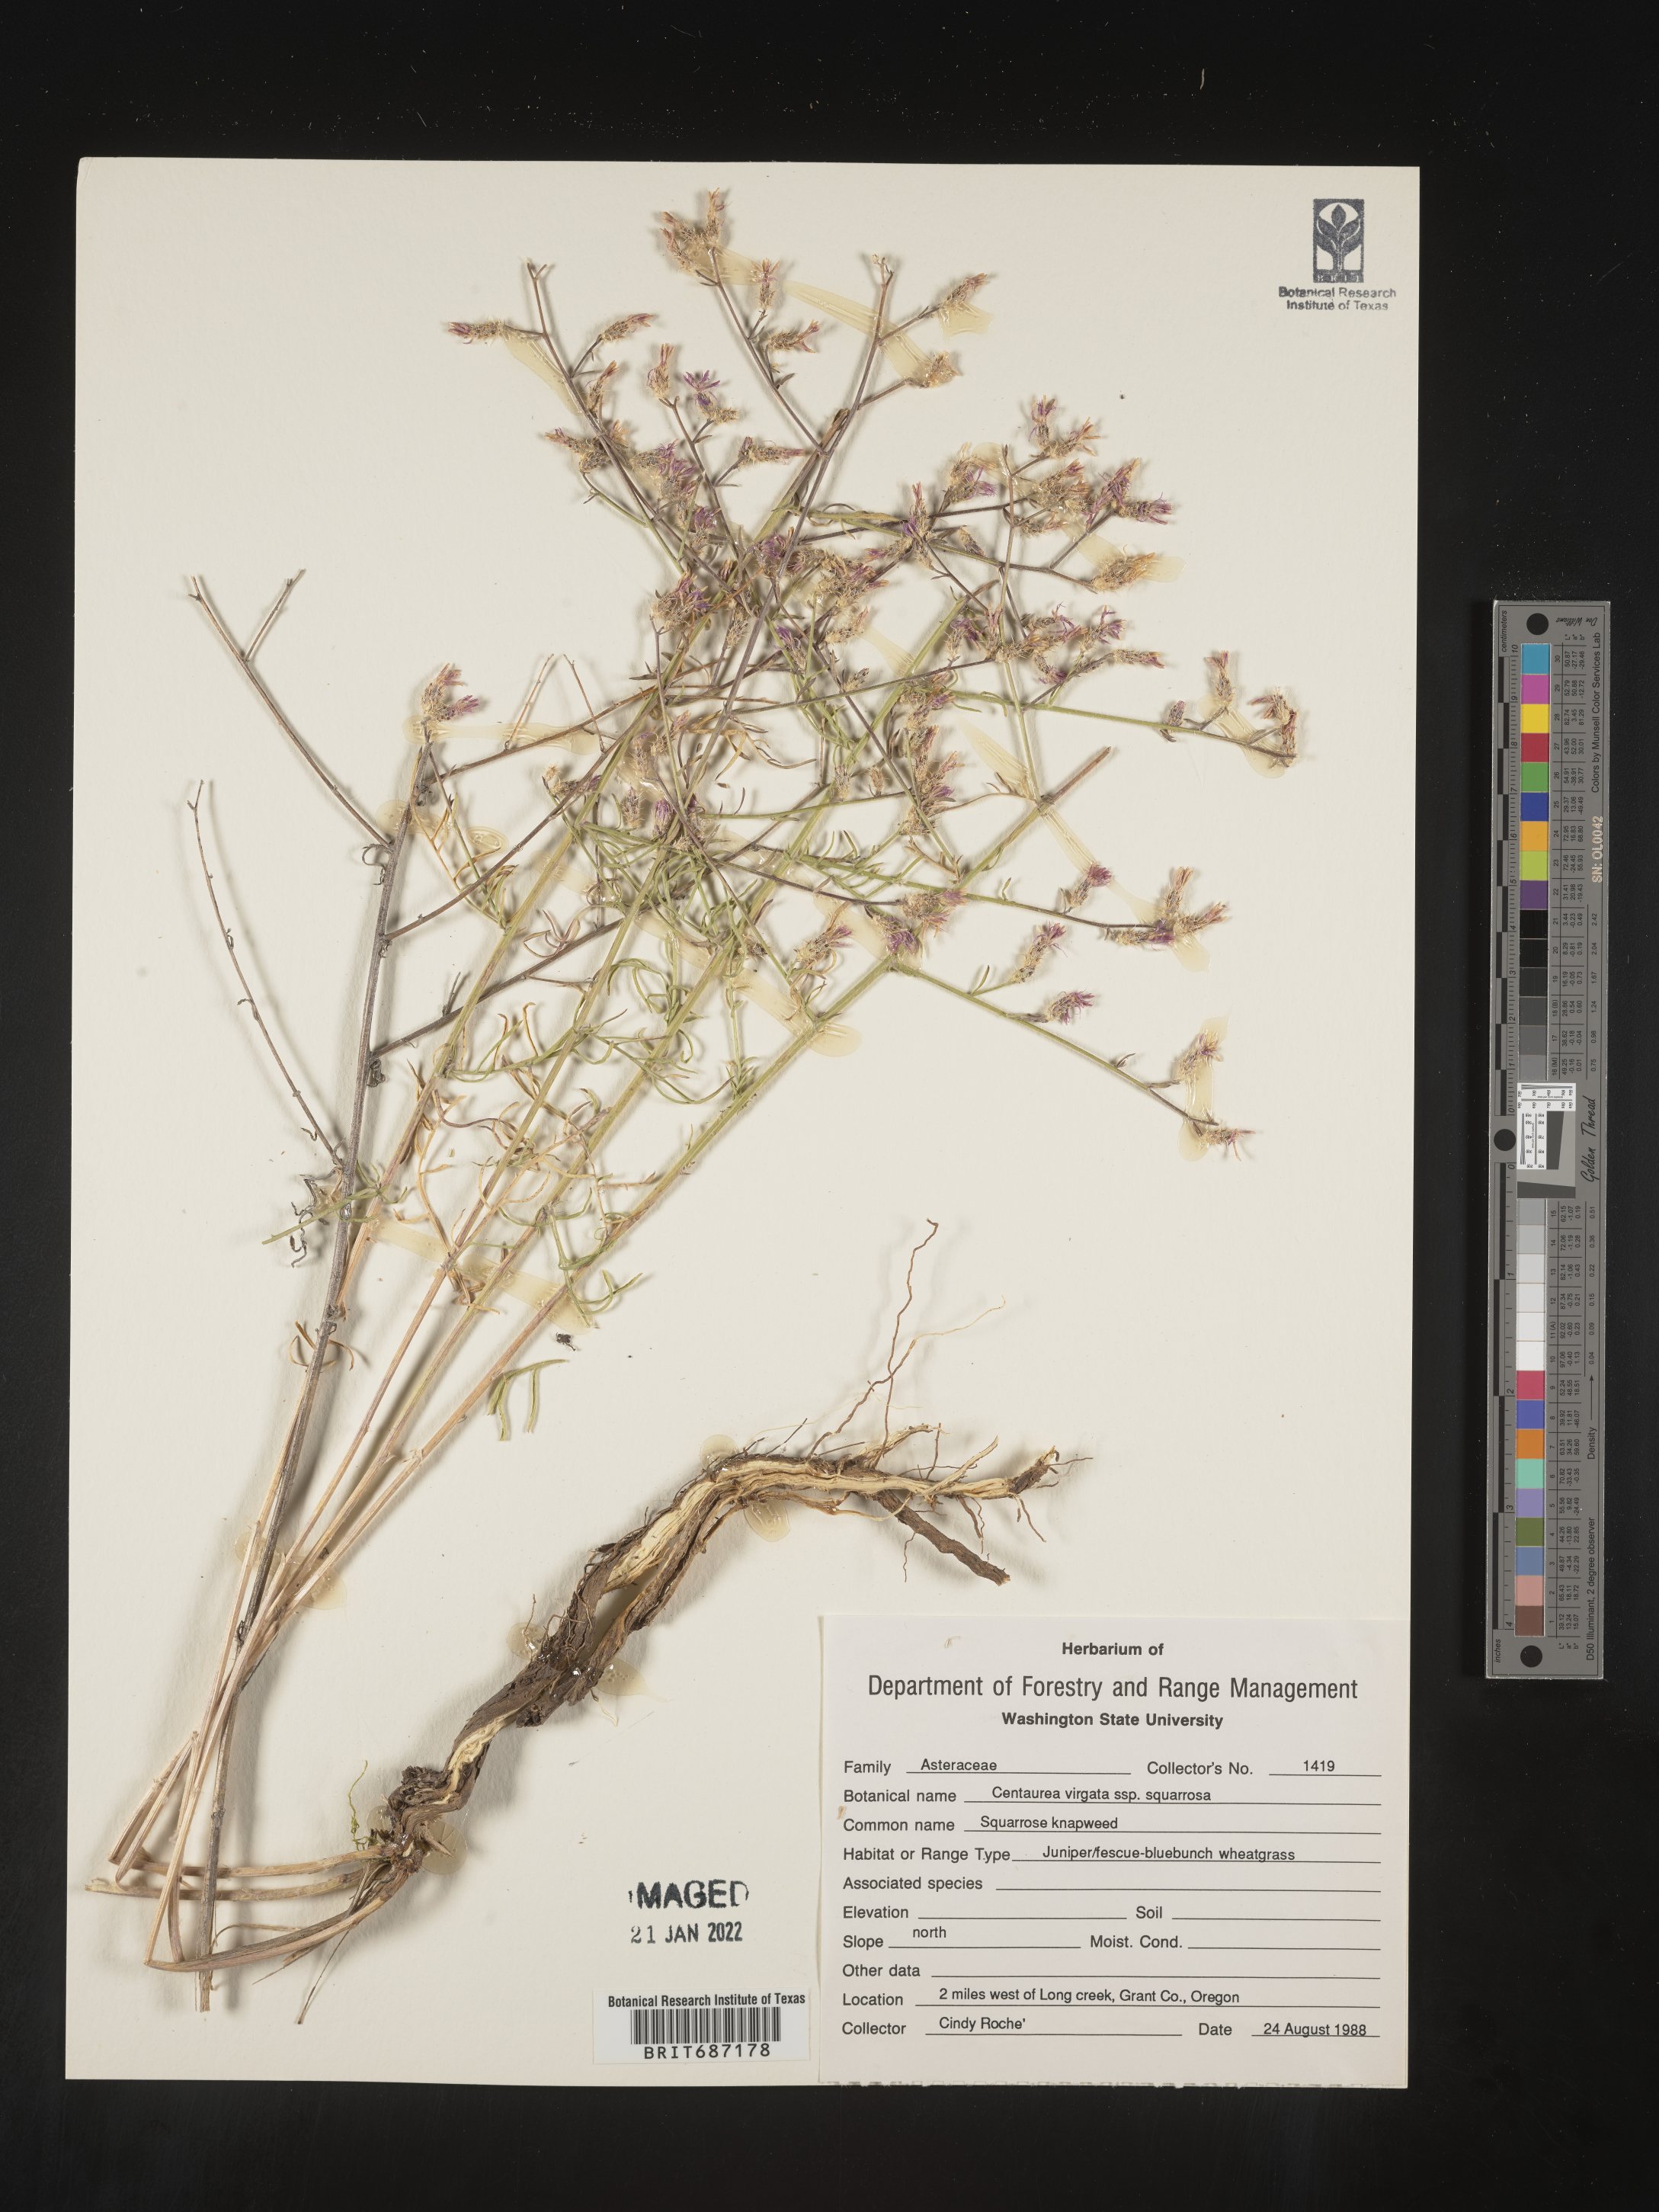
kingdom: Plantae
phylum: Tracheophyta
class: Magnoliopsida
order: Asterales
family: Asteraceae
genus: Centaurea
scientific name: Centaurea triumfettii
